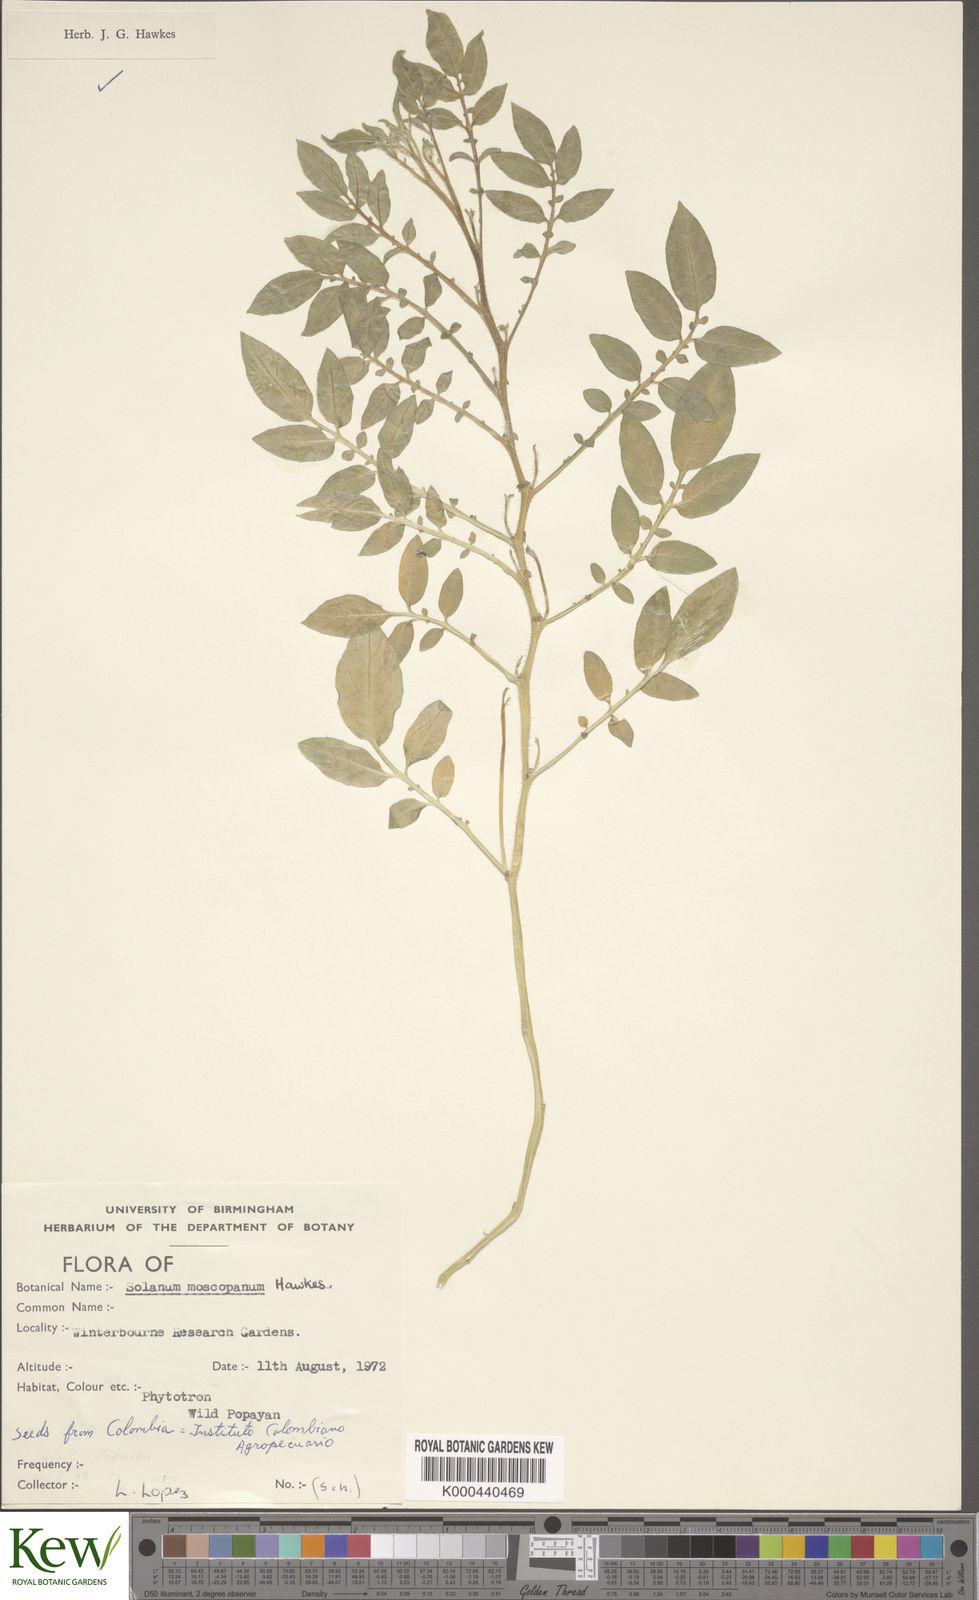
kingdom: Plantae
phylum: Tracheophyta
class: Magnoliopsida
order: Solanales
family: Solanaceae
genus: Solanum
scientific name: Solanum colombianum
